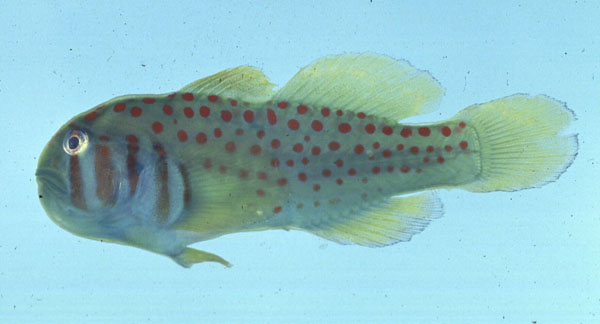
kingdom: Animalia
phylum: Chordata
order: Perciformes
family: Gobiidae
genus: Gobiodon
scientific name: Gobiodon histrio
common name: Actor coral goby
